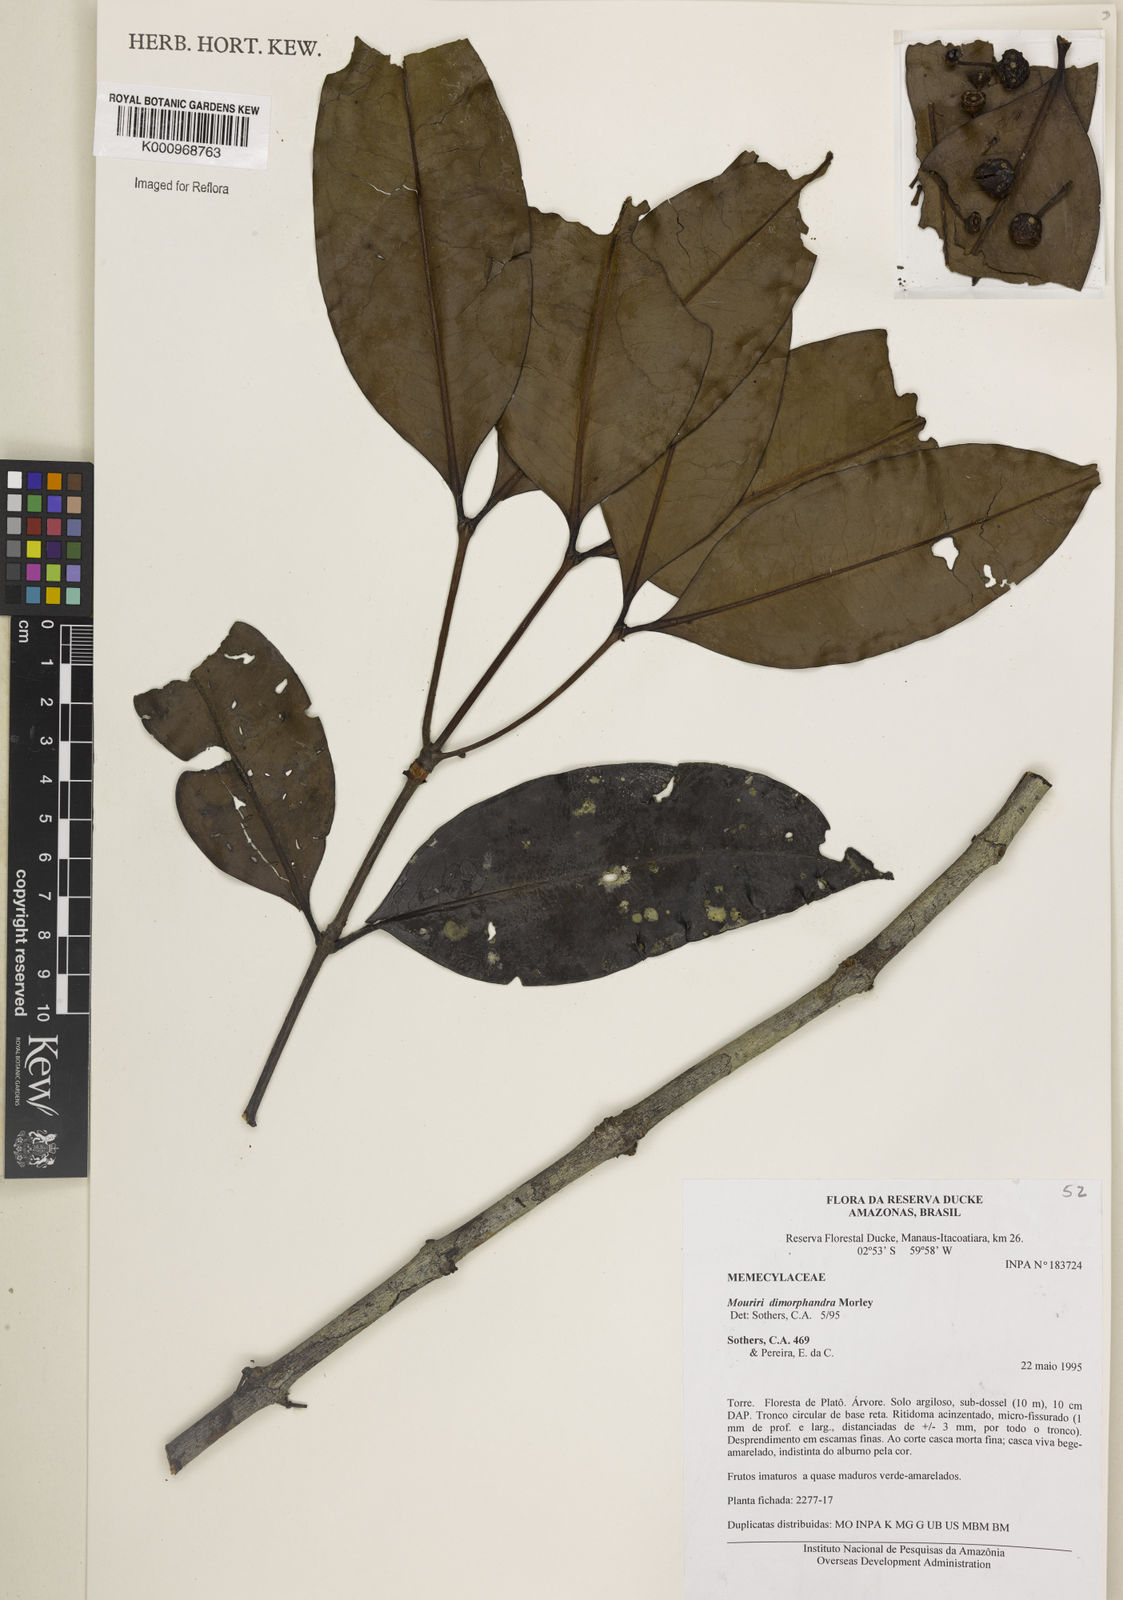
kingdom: Plantae
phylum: Tracheophyta
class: Magnoliopsida
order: Myrtales
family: Melastomataceae
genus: Mouriri
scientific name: Mouriri dimorphandra
